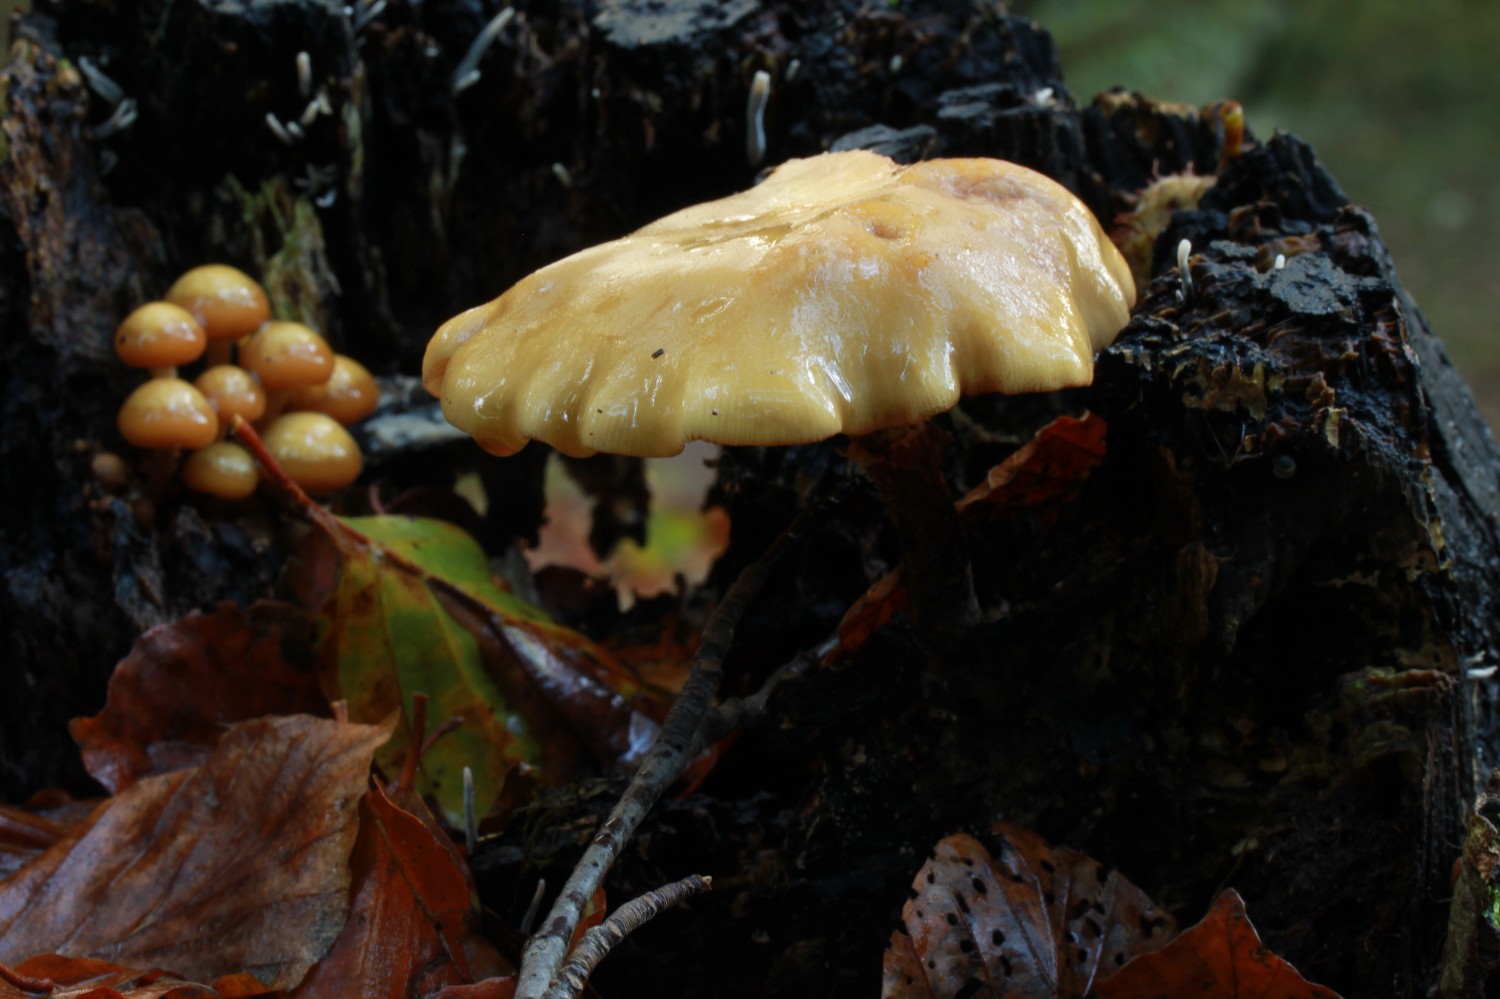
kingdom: Fungi
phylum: Basidiomycota
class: Agaricomycetes
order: Agaricales
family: Strophariaceae
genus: Kuehneromyces
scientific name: Kuehneromyces mutabilis
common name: foranderlig skælhat
